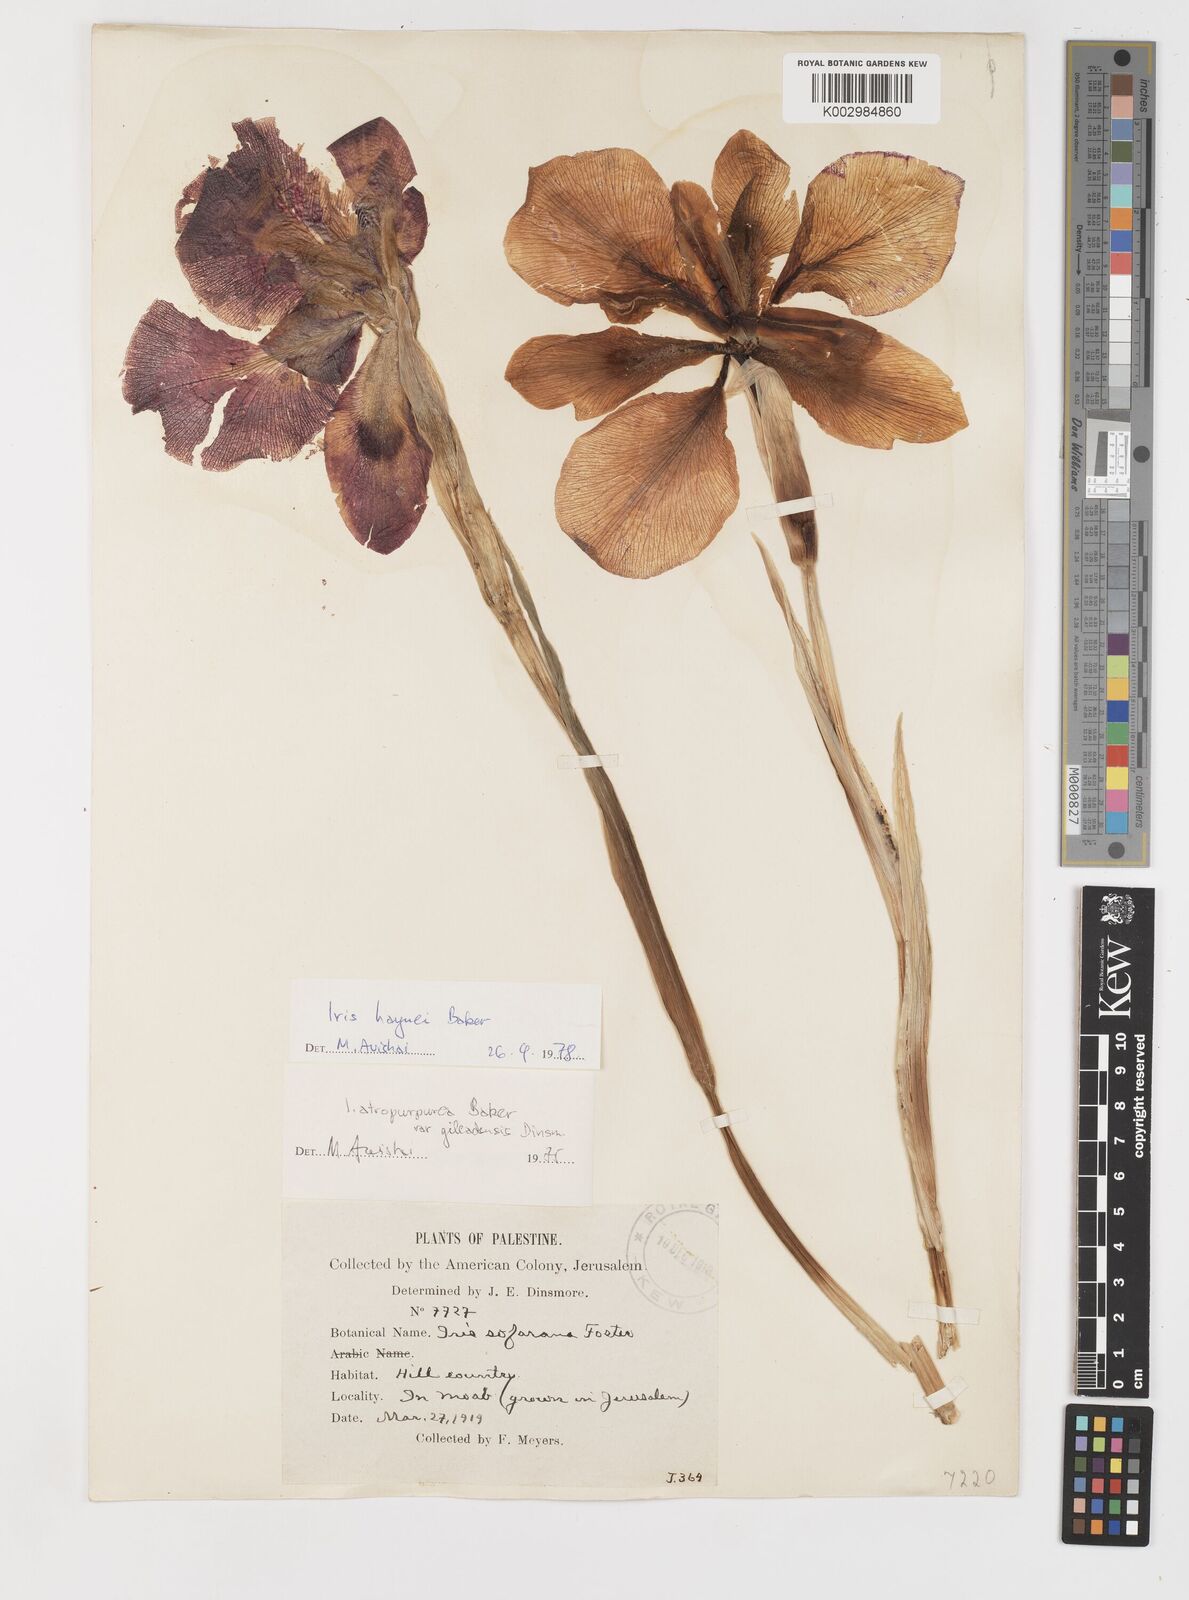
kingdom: Plantae
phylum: Tracheophyta
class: Liliopsida
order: Asparagales
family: Iridaceae
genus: Iris
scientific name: Iris atropurpurea
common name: Coastal iris
